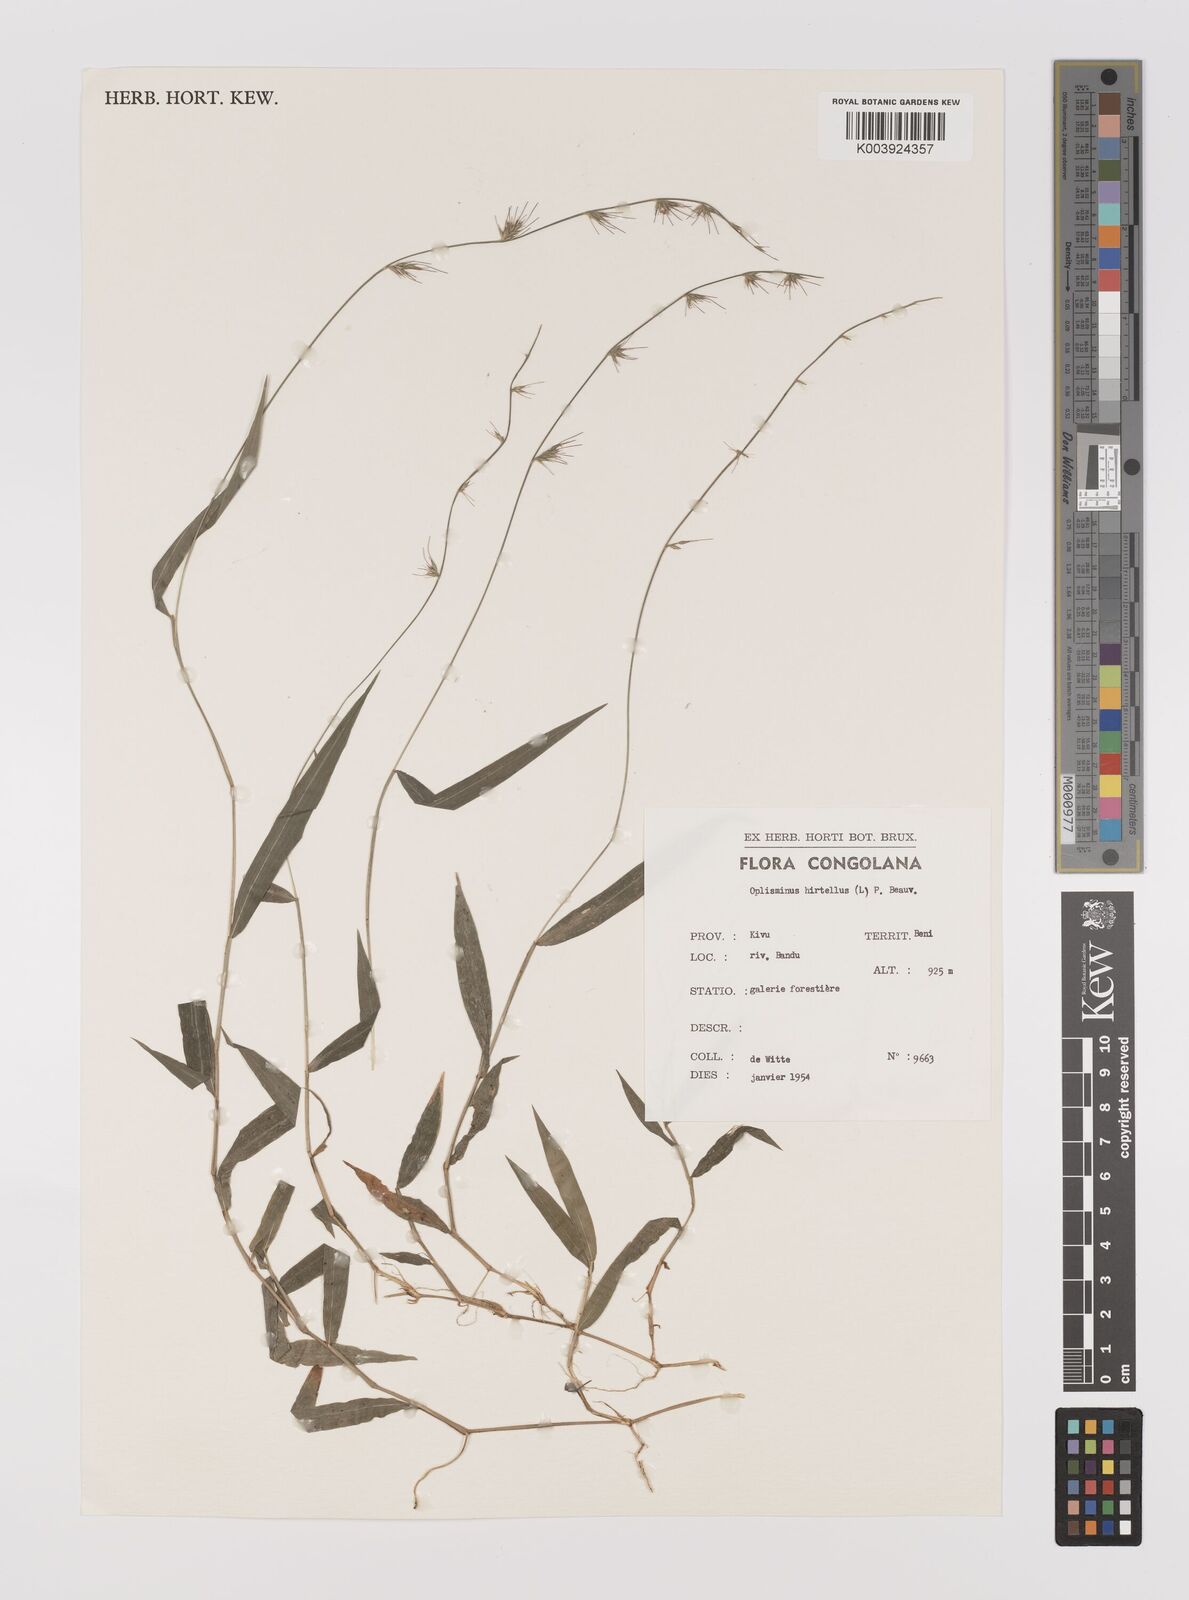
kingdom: Plantae
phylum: Tracheophyta
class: Liliopsida
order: Poales
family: Poaceae
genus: Oplismenus
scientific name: Oplismenus hirtellus
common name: Basketgrass
